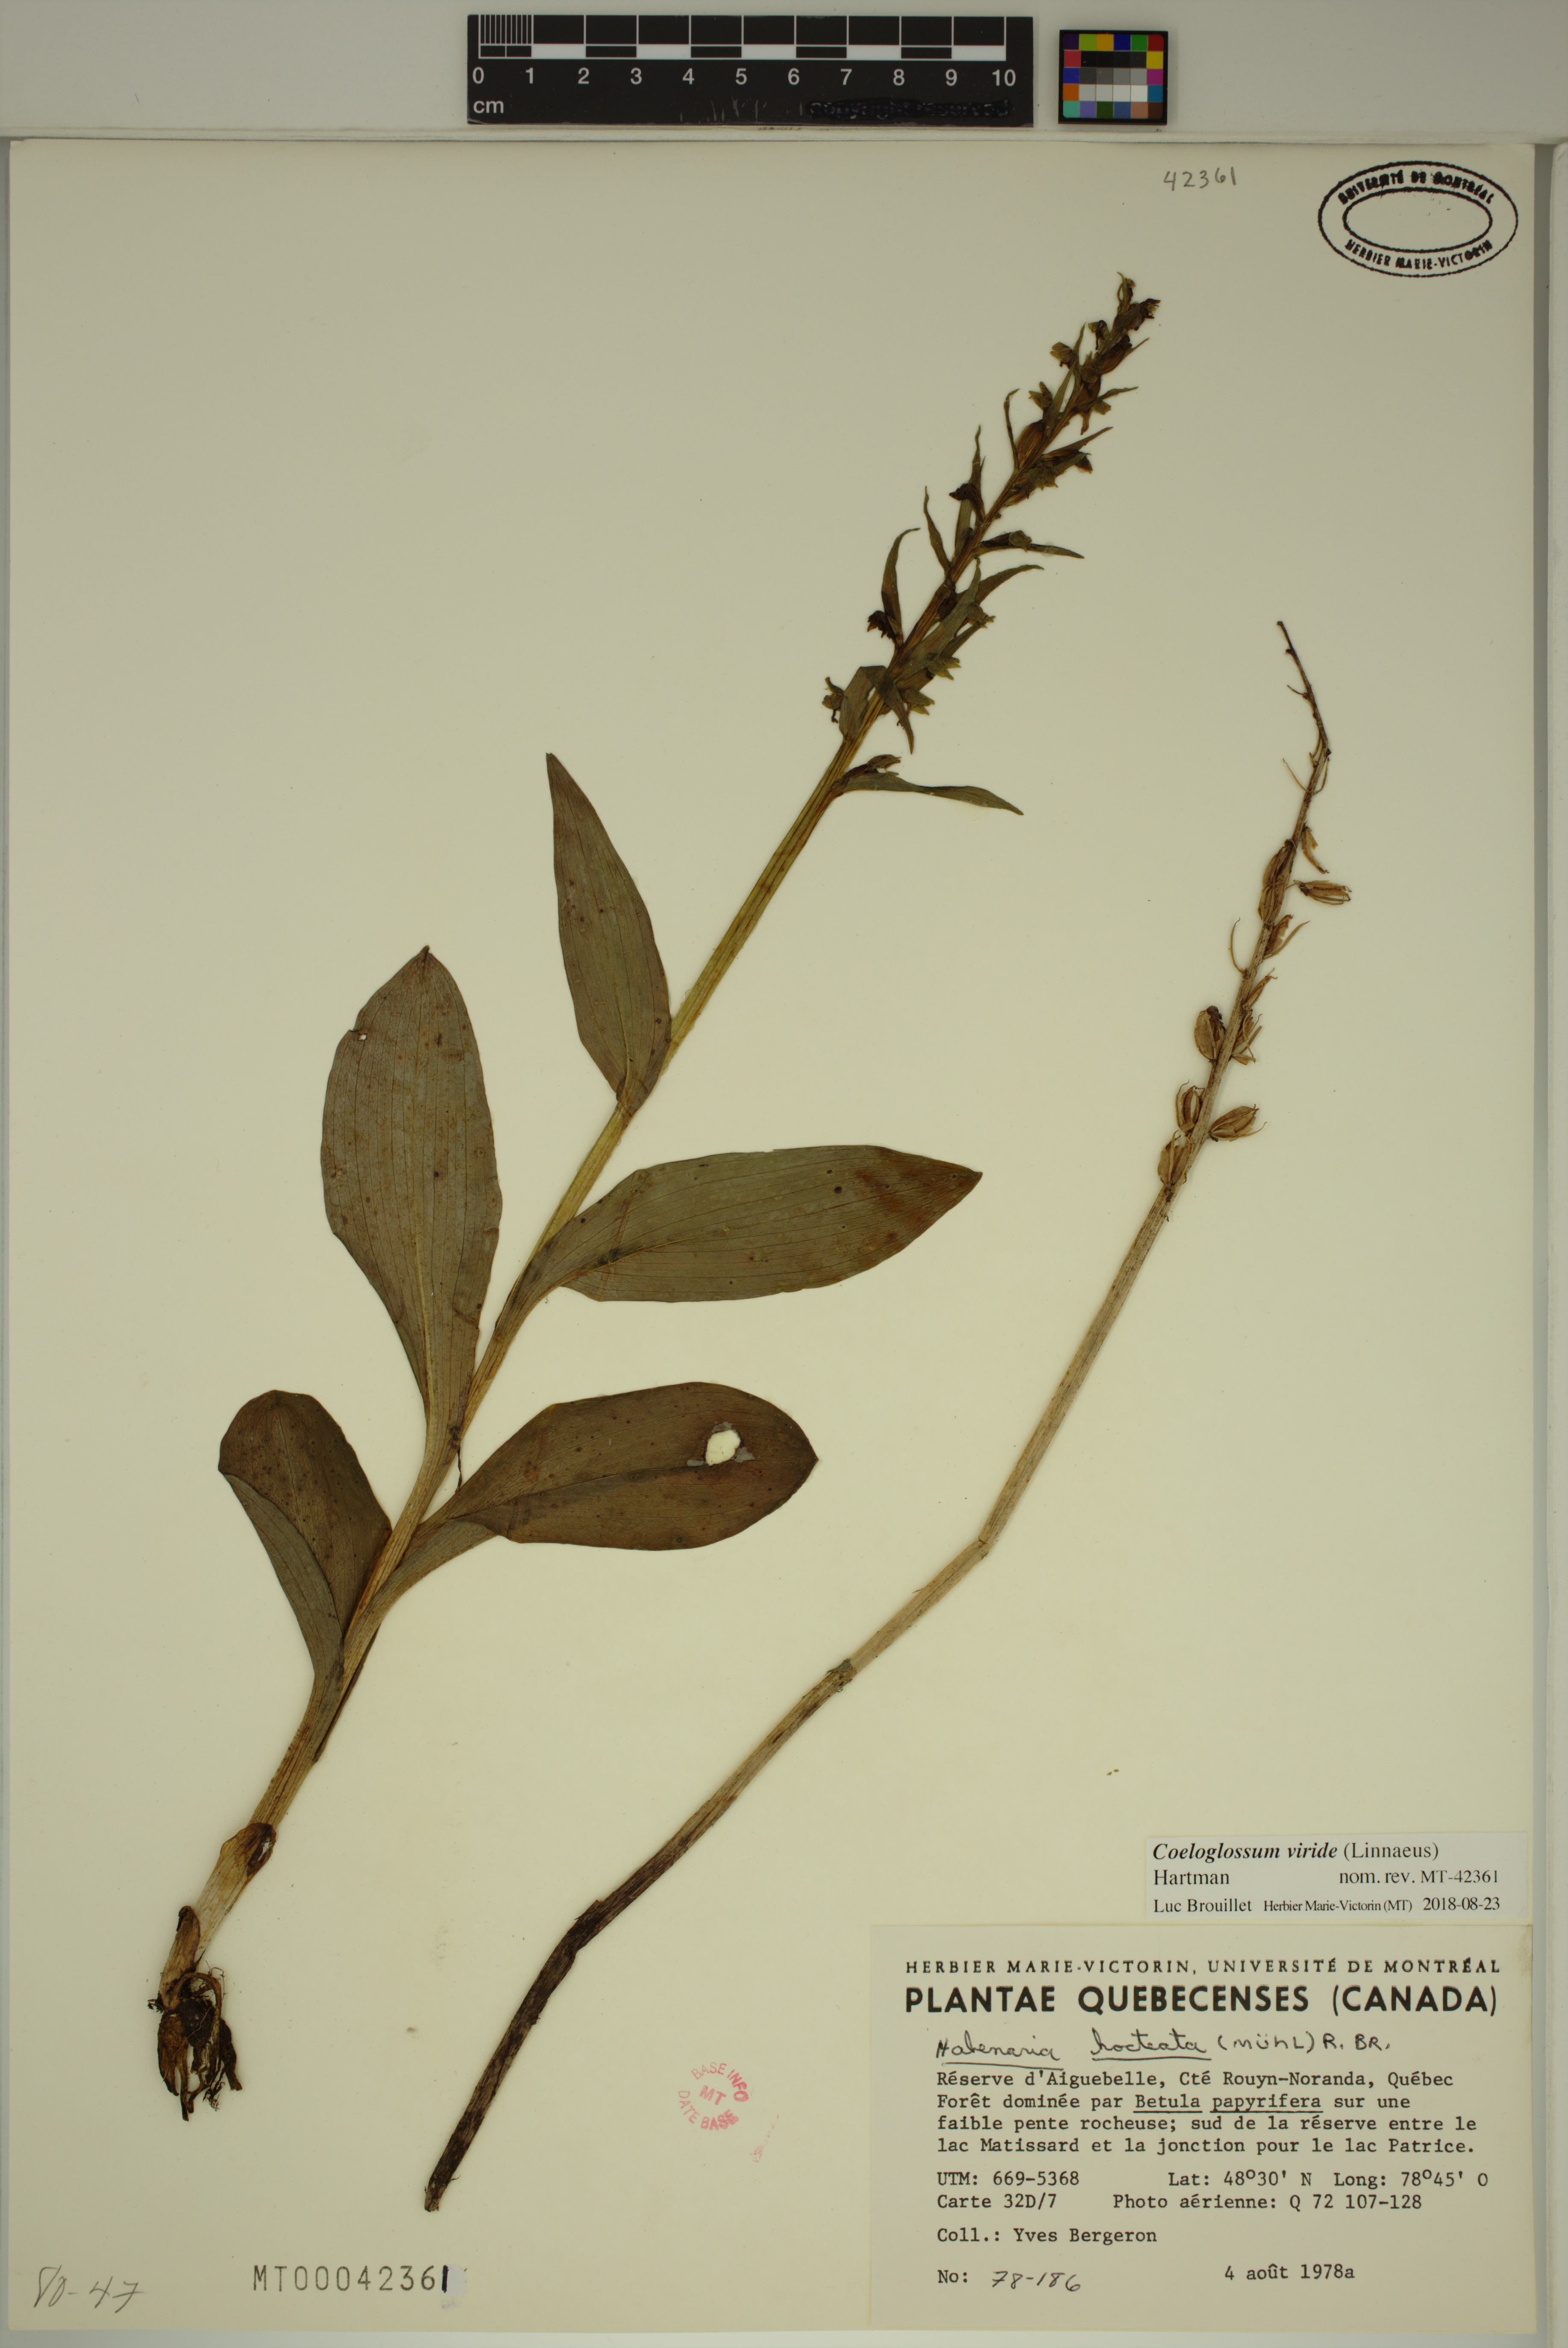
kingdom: Plantae
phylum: Tracheophyta
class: Liliopsida
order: Asparagales
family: Orchidaceae
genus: Dactylorhiza
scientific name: Dactylorhiza viridis
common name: Longbract frog orchid
